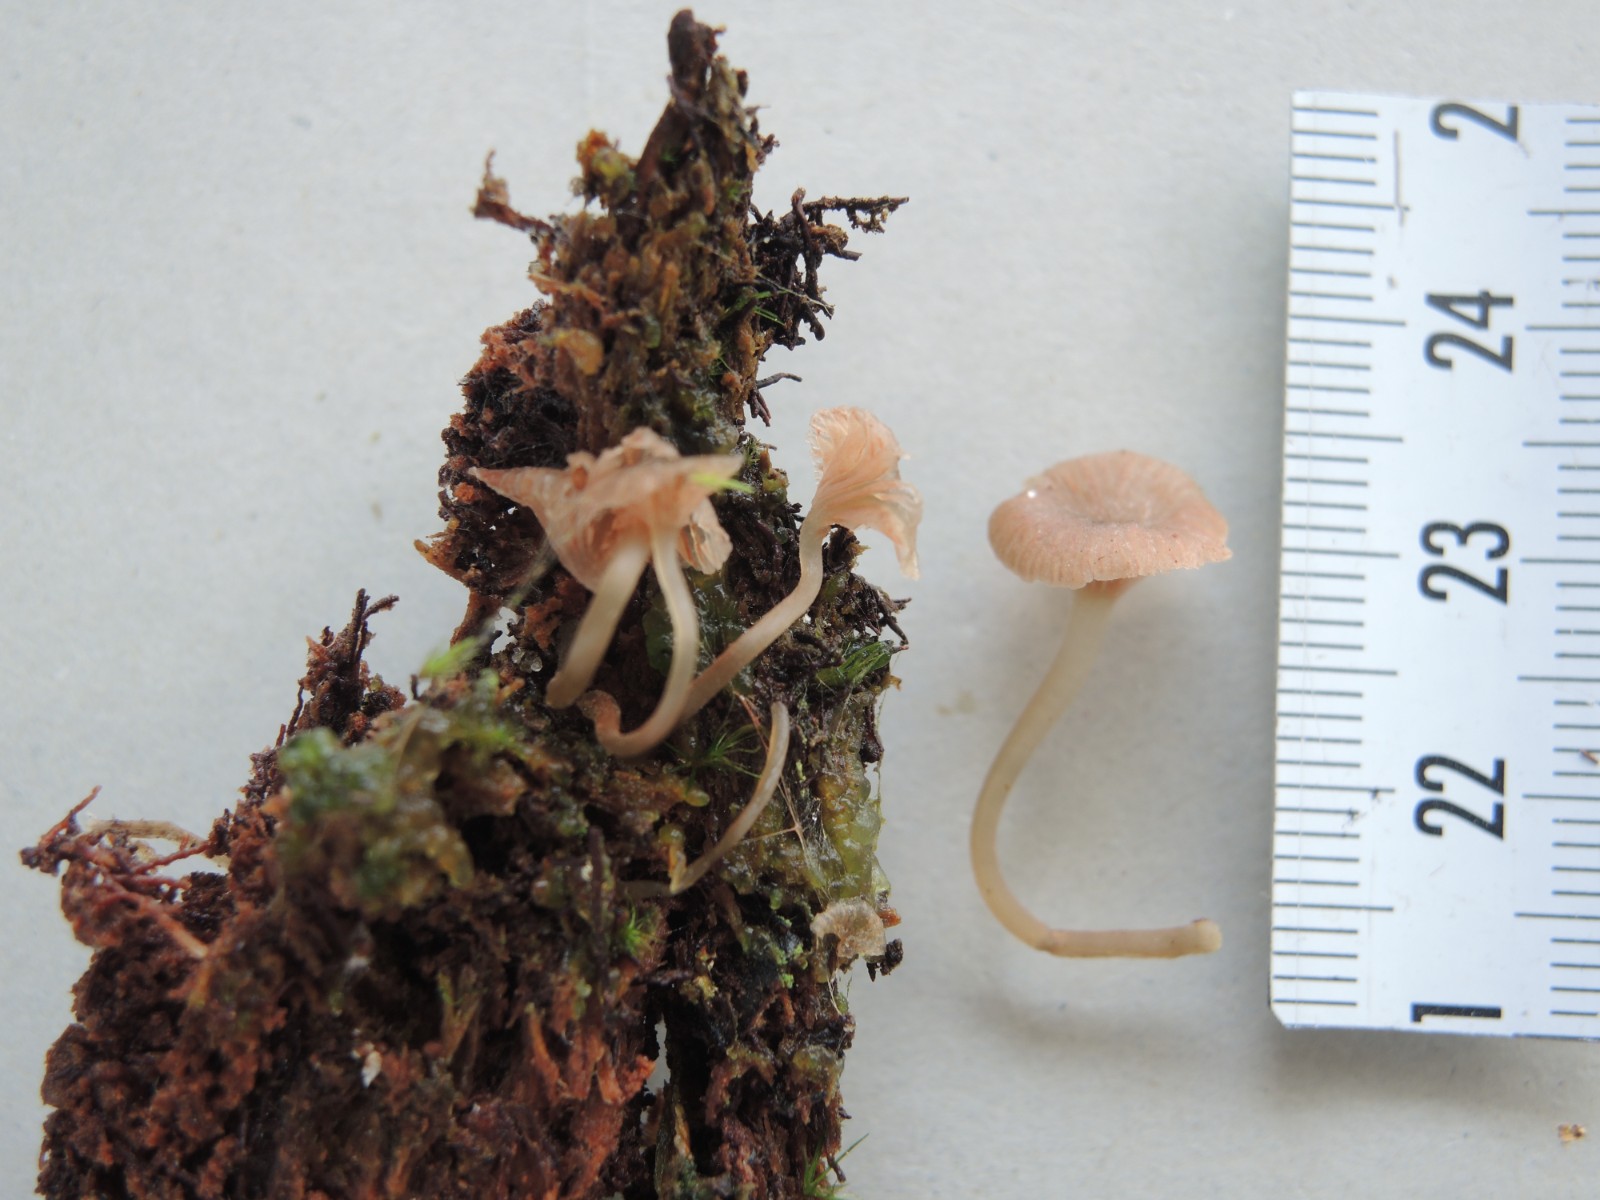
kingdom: Fungi
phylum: Basidiomycota
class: Agaricomycetes
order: Agaricales
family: Entolomataceae
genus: Entoloma
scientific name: Entoloma rhodocylix
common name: fjernbladet rødblad
